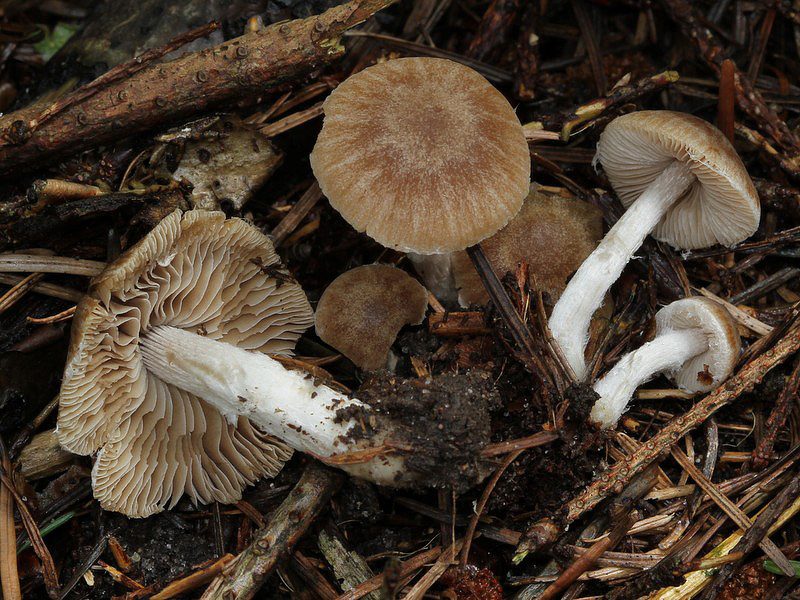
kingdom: Fungi
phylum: Basidiomycota
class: Agaricomycetes
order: Agaricales
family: Inocybaceae
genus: Inocybe
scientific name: Inocybe glabripes
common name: småsporet trævlhat
